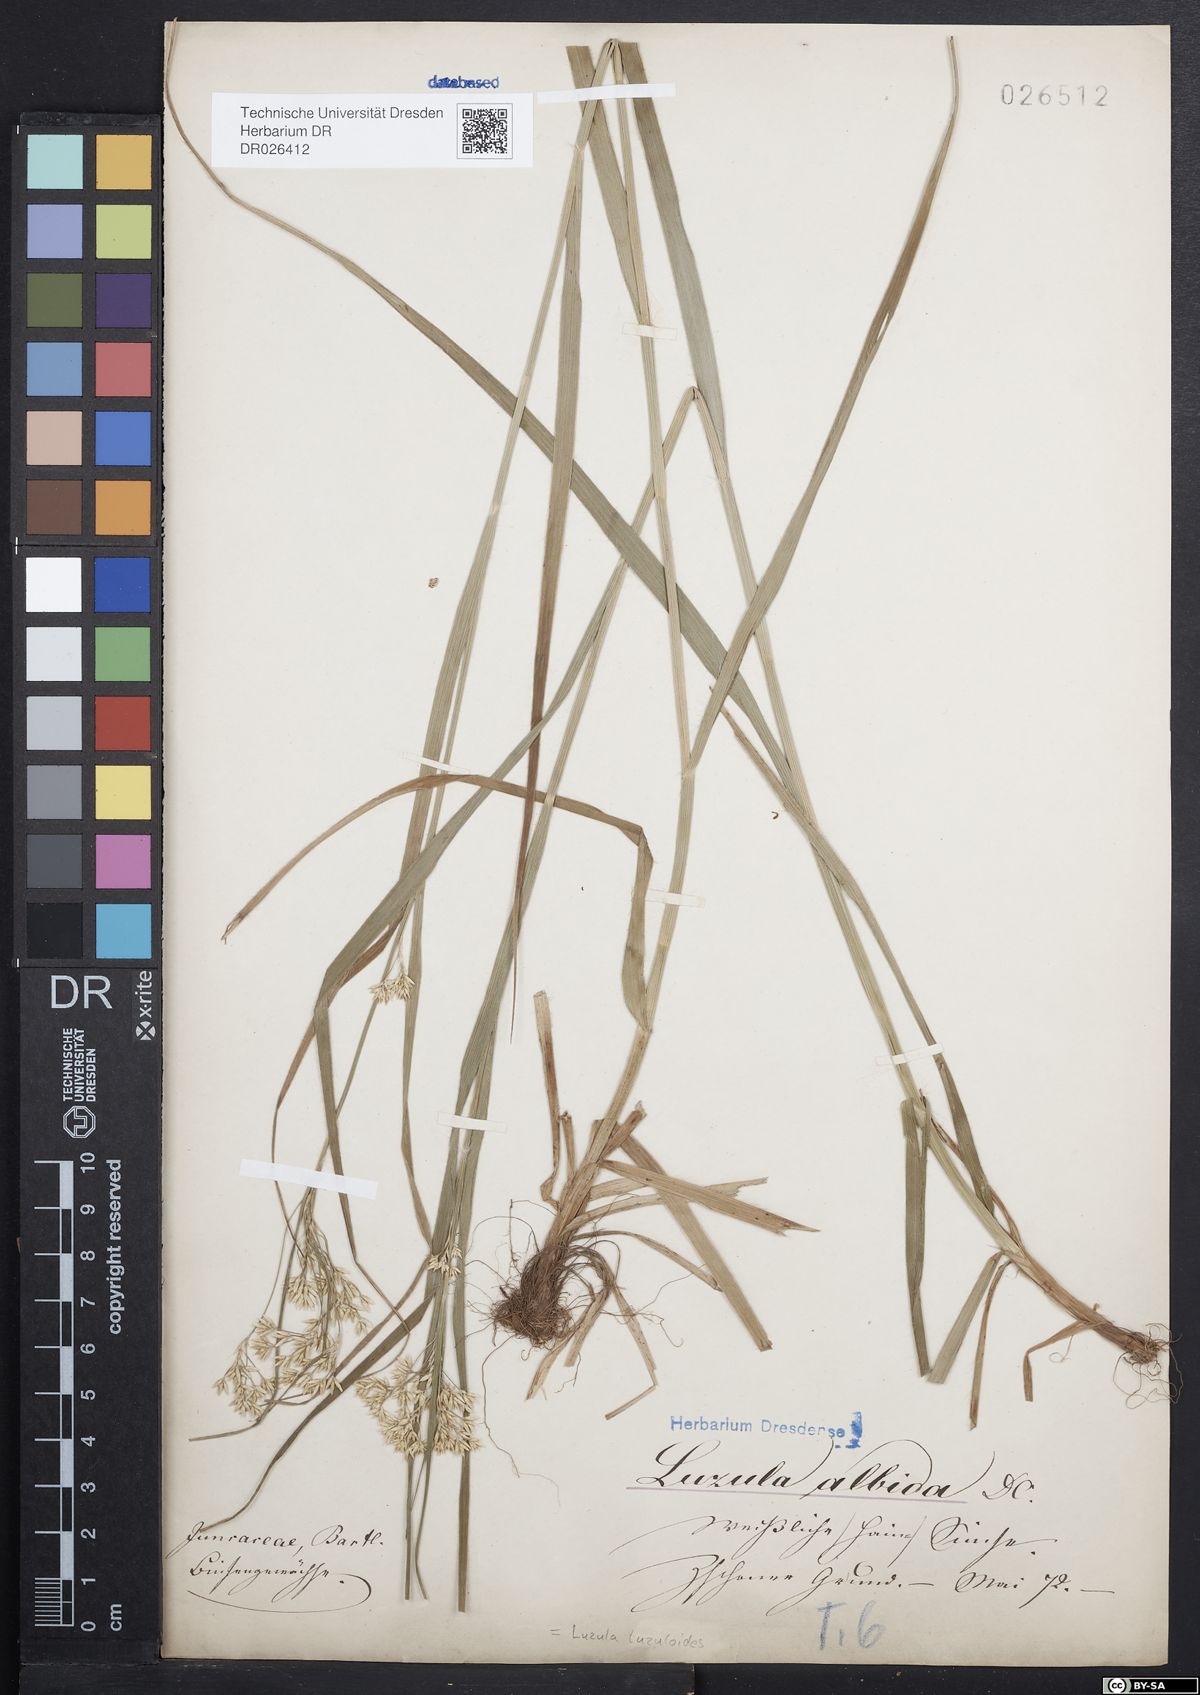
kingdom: Plantae
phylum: Tracheophyta
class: Liliopsida
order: Poales
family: Juncaceae
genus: Luzula
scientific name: Luzula luzuloides
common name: White wood-rush
